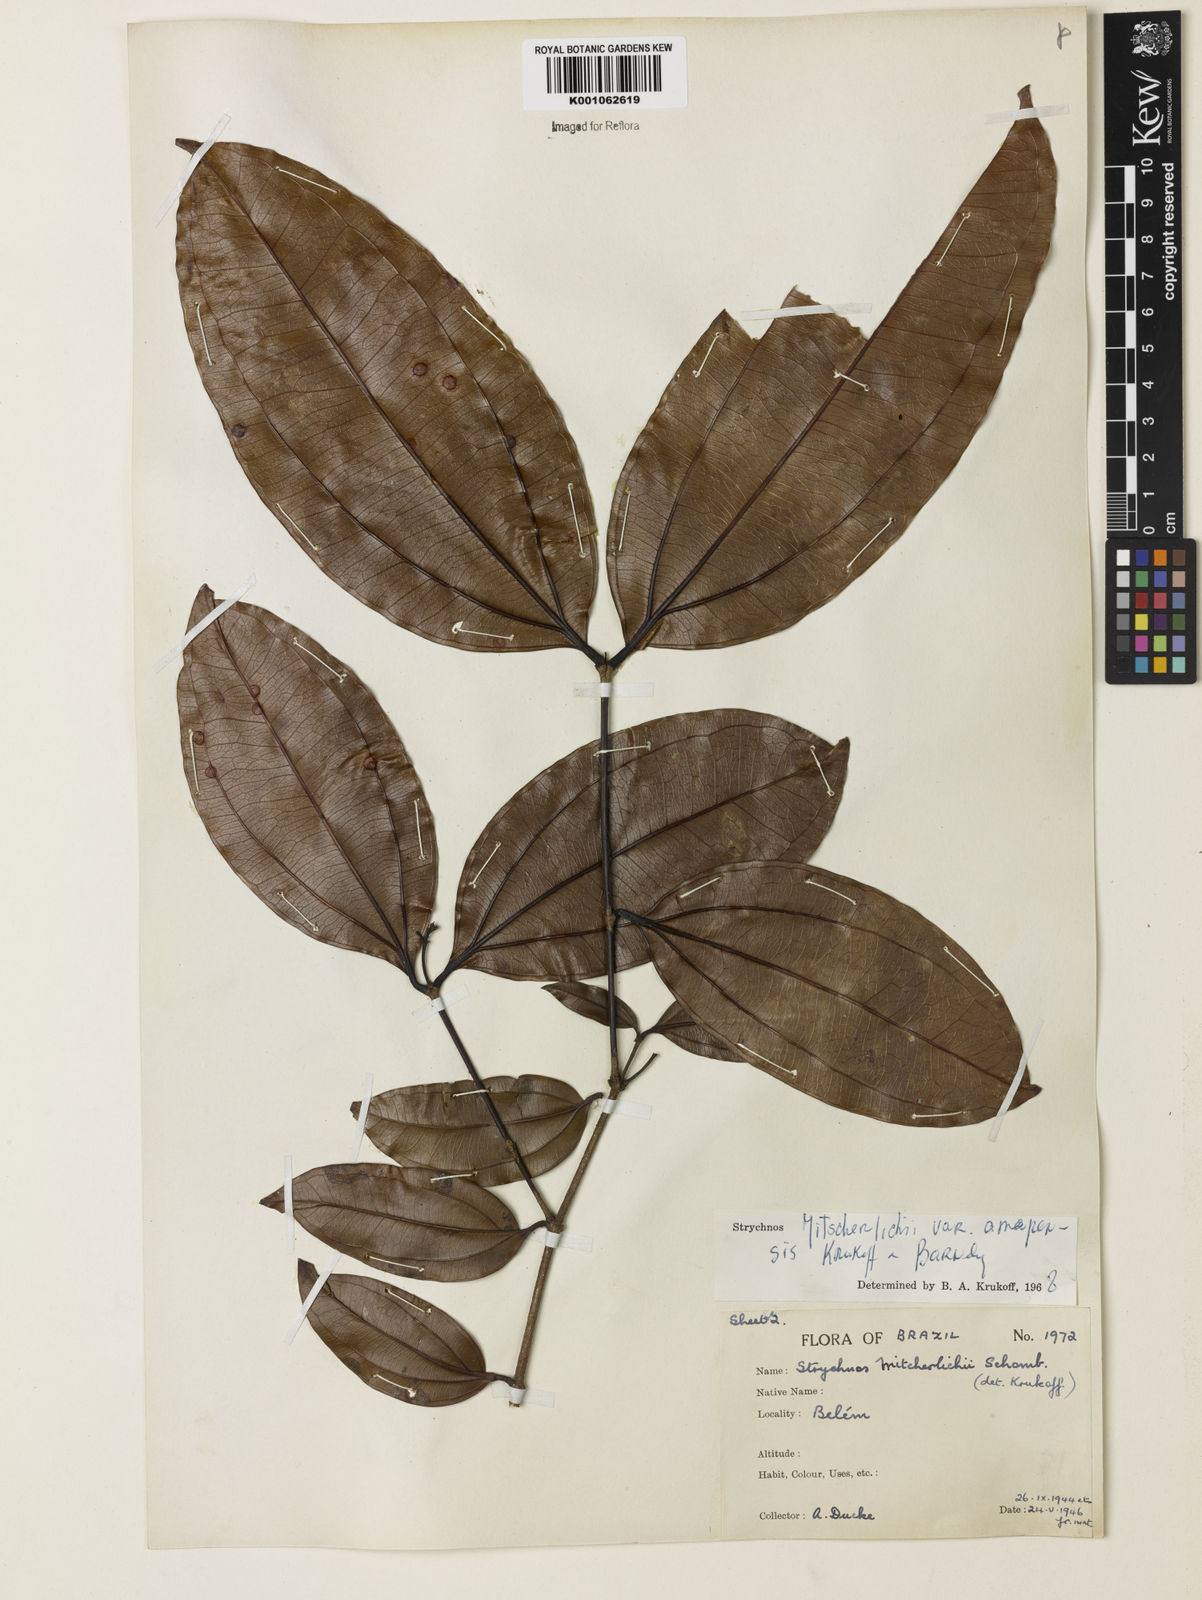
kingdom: Plantae
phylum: Tracheophyta
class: Magnoliopsida
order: Gentianales
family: Loganiaceae
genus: Strychnos
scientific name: Strychnos mitscherlichii
